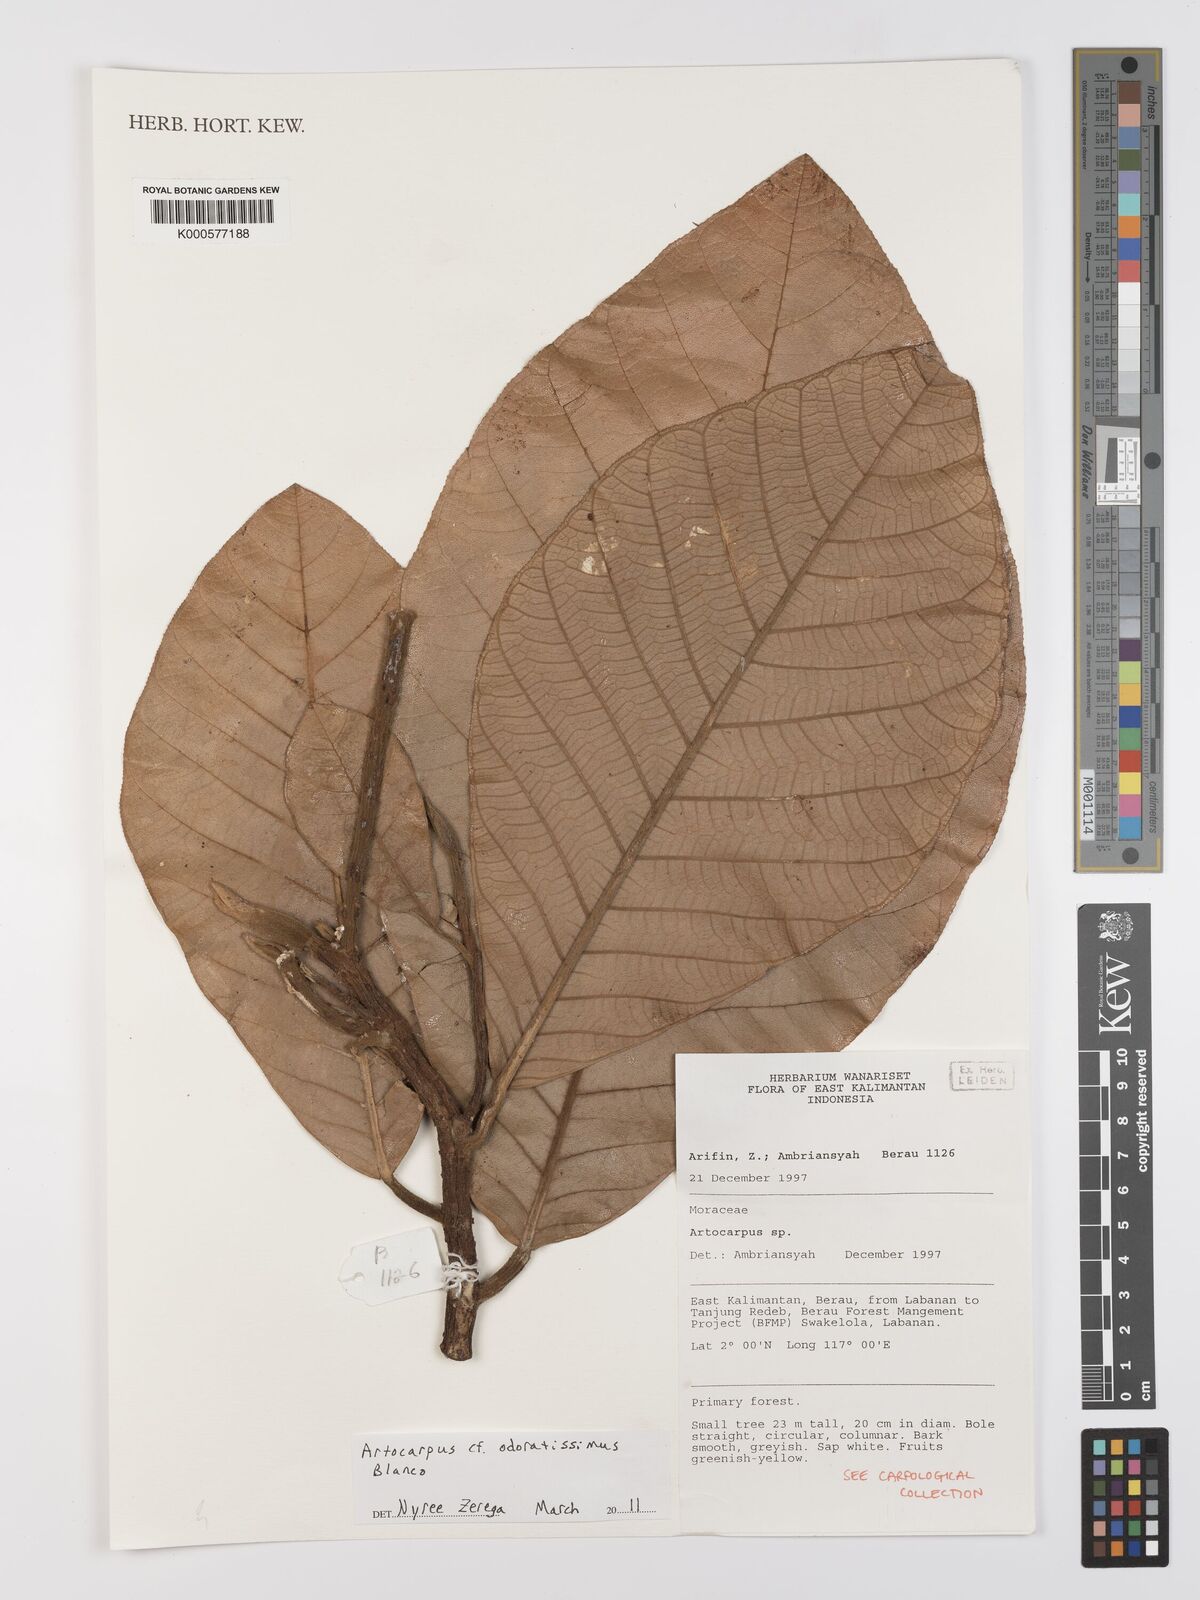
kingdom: Plantae
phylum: Tracheophyta
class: Magnoliopsida
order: Rosales
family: Moraceae
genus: Artocarpus
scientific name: Artocarpus odoratissimus
